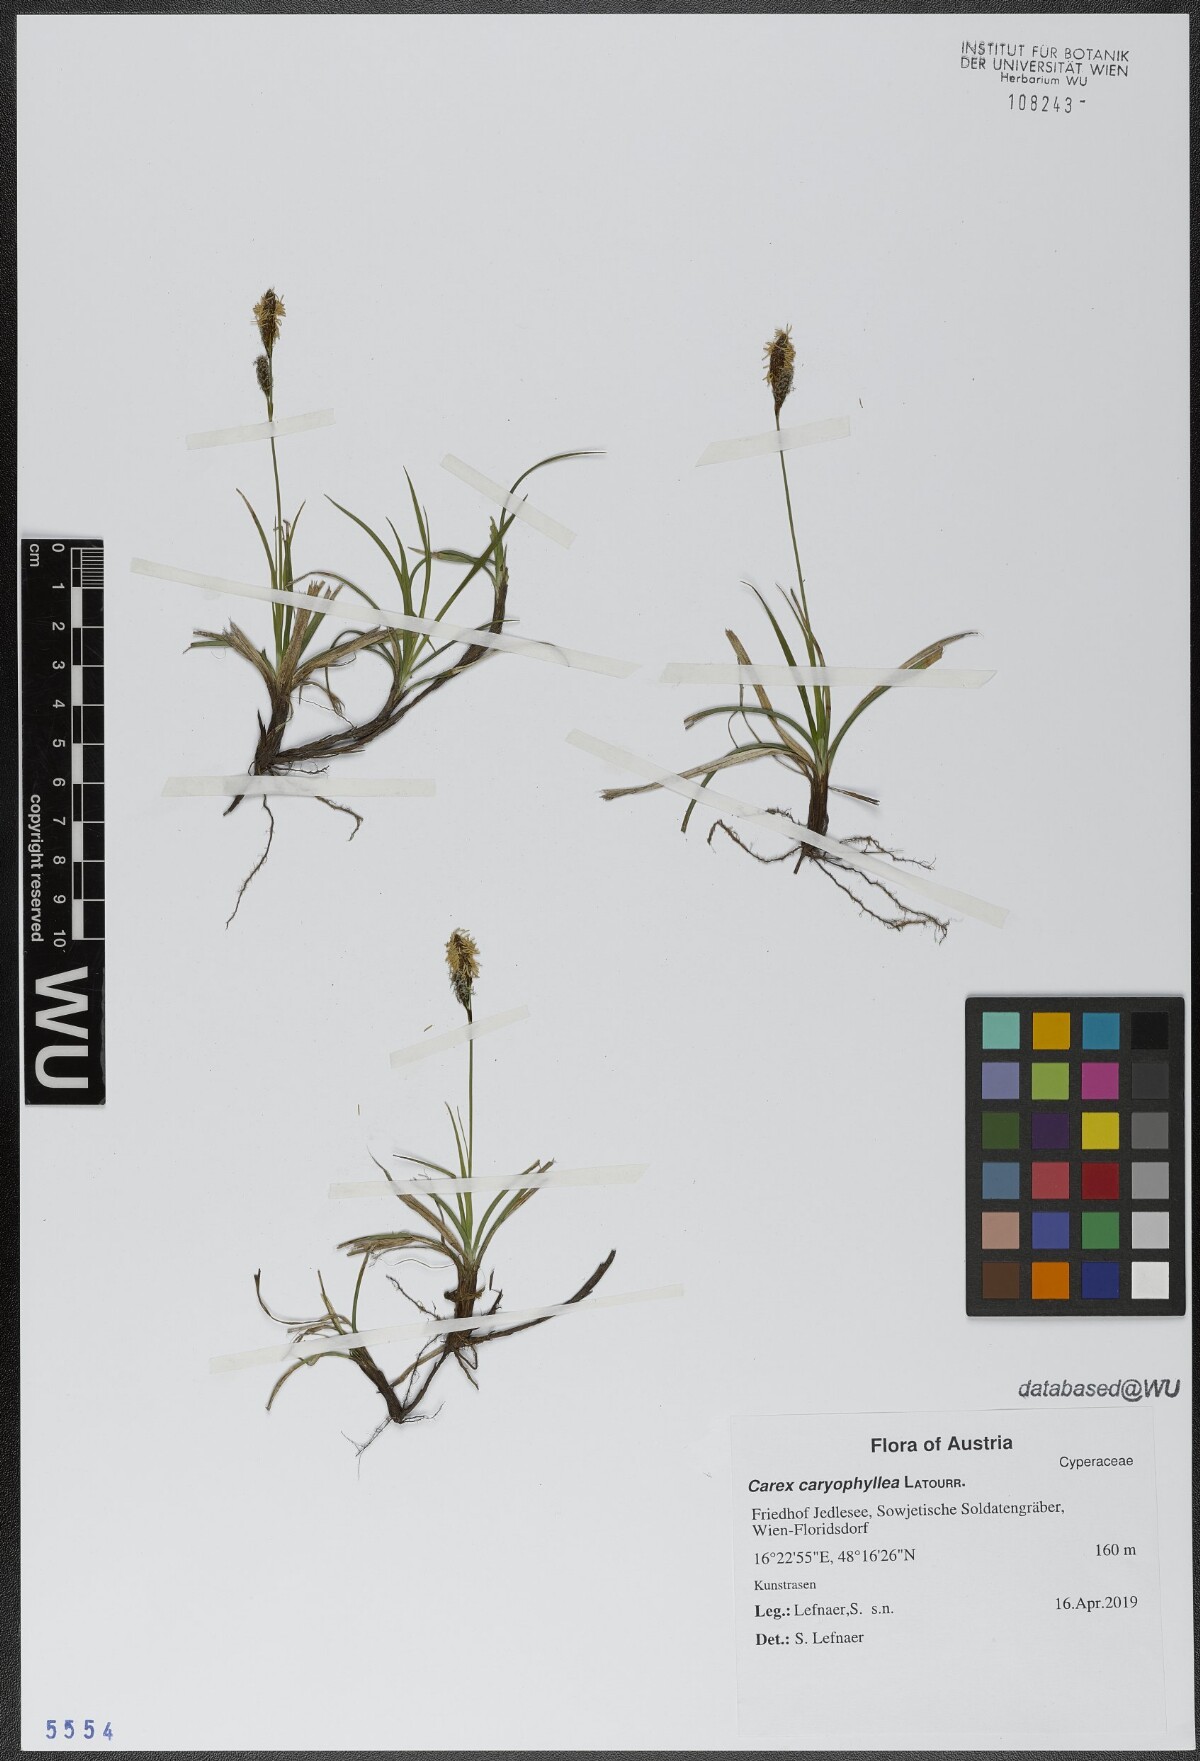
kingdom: Plantae
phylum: Tracheophyta
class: Liliopsida
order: Poales
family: Cyperaceae
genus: Carex
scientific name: Carex caryophyllea
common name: Spring sedge
